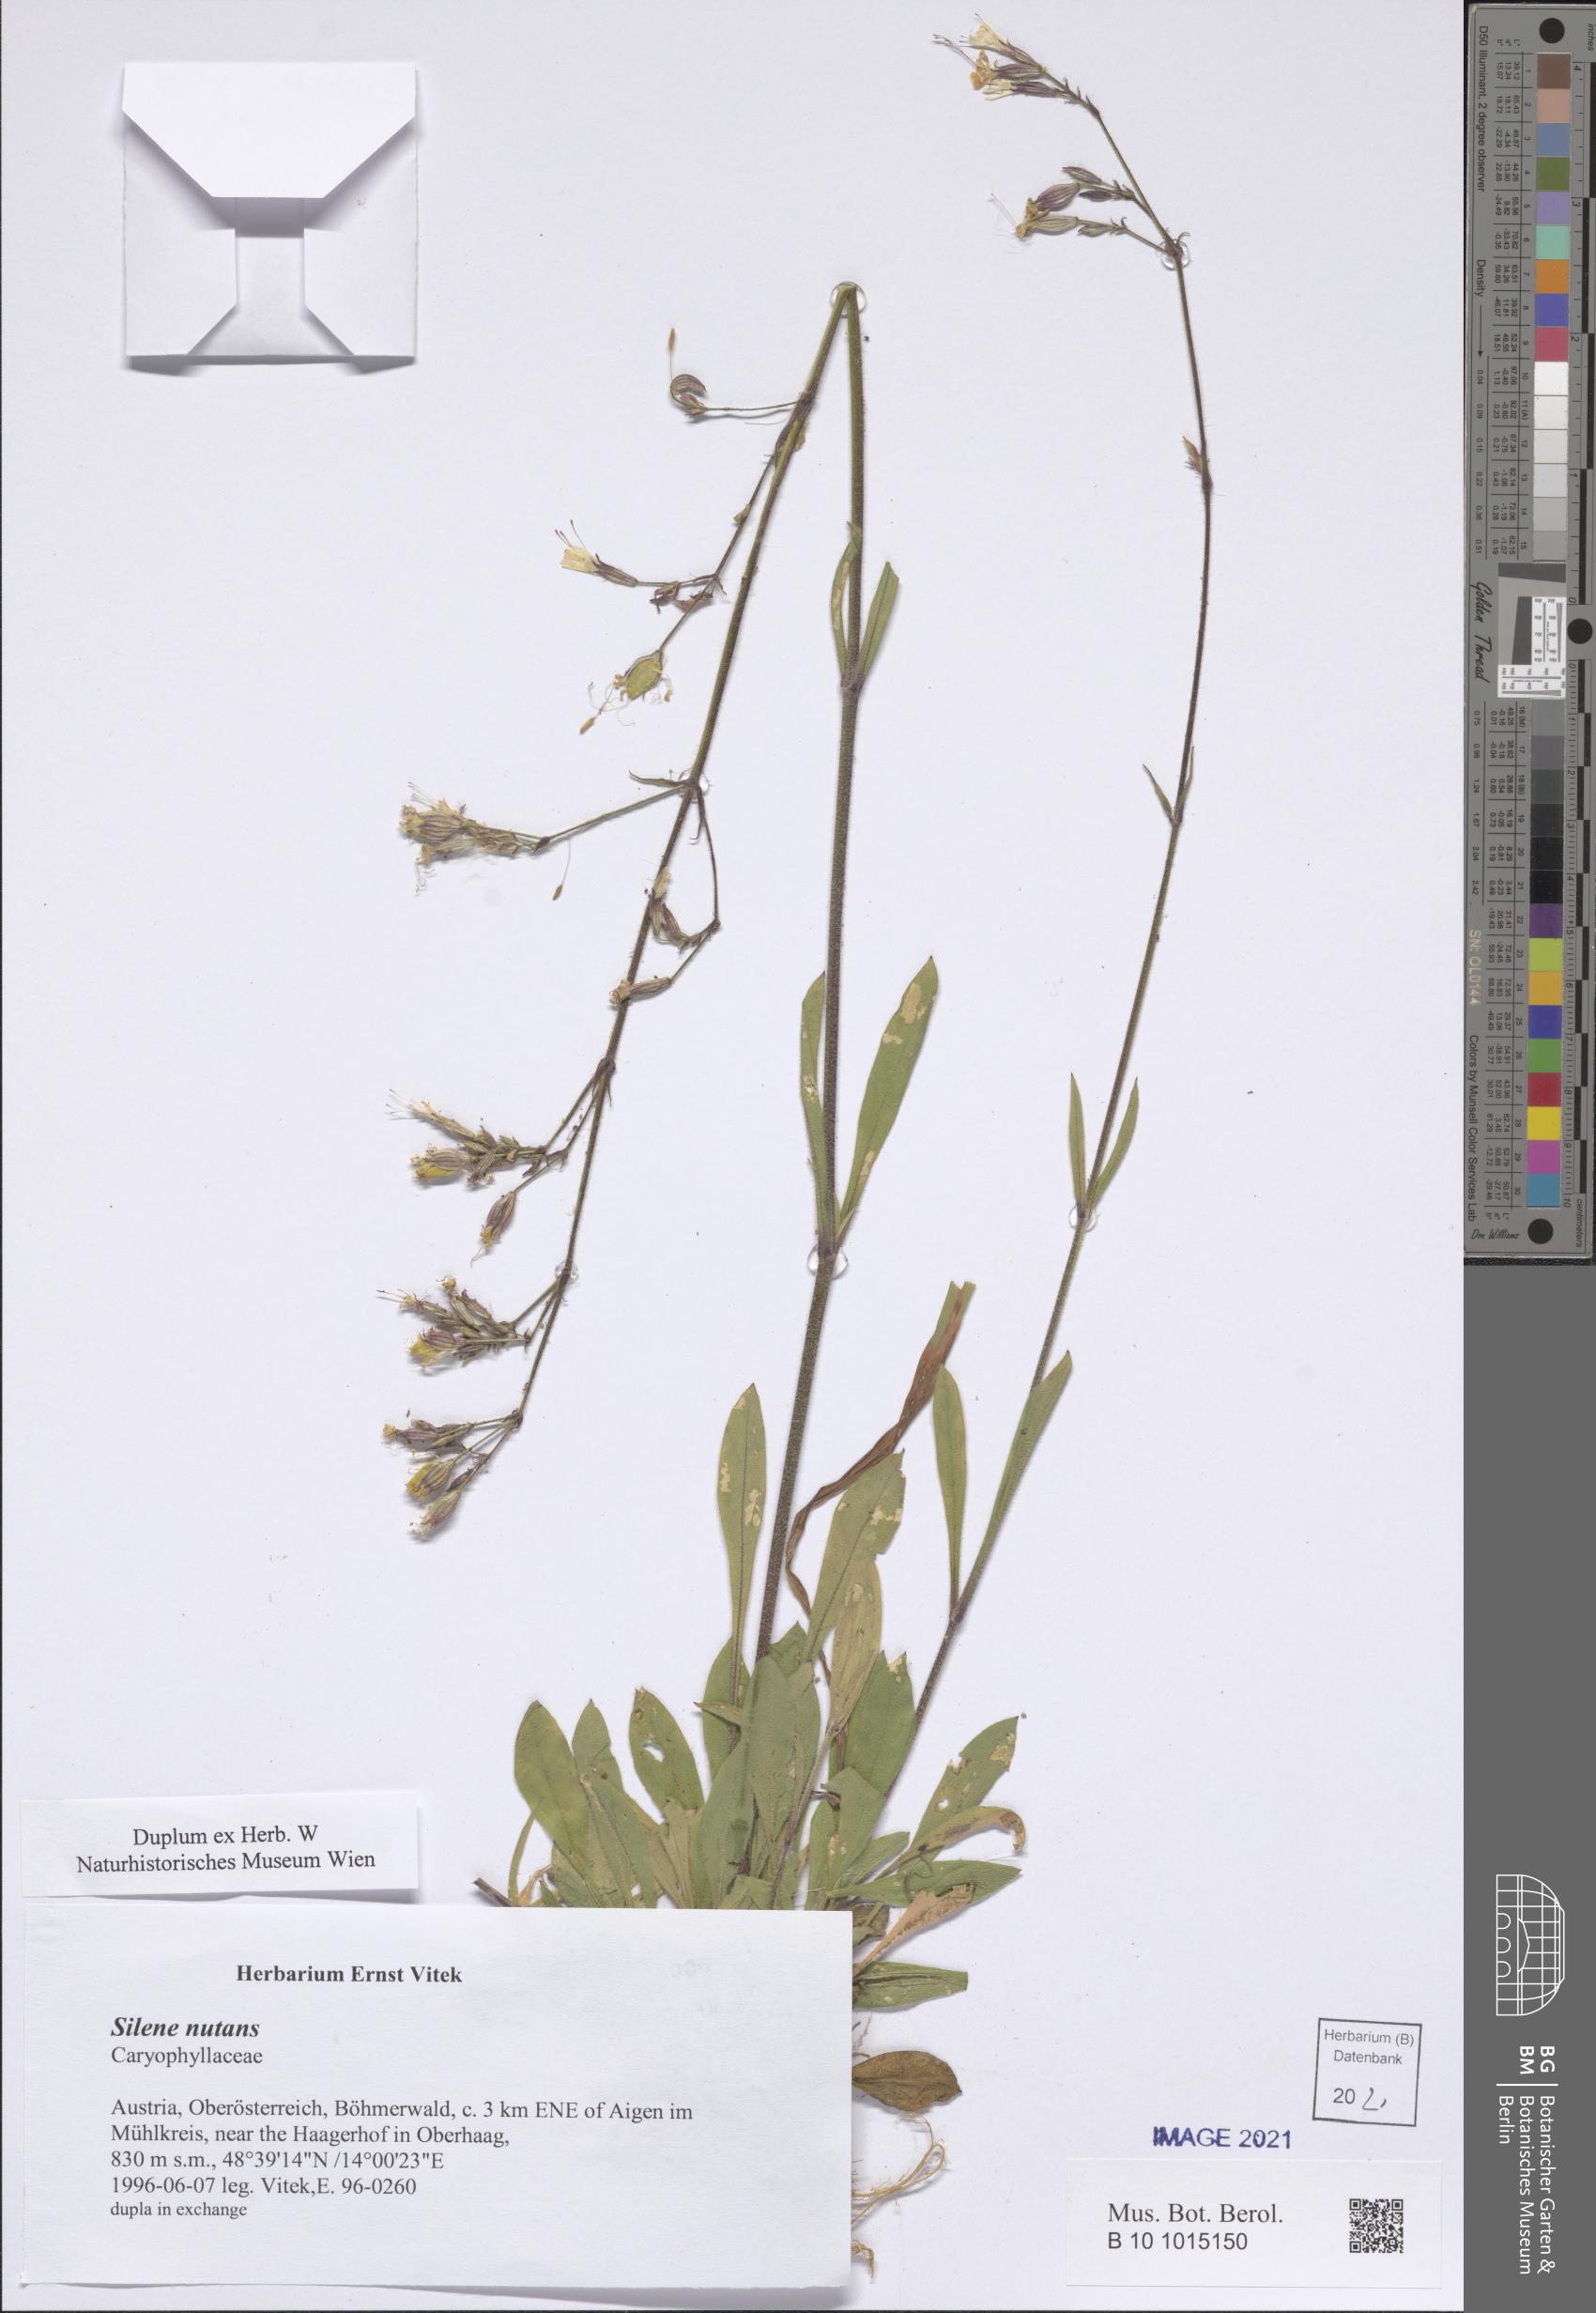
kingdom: Plantae
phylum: Tracheophyta
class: Magnoliopsida
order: Caryophyllales
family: Caryophyllaceae
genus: Silene
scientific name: Silene nutans
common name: Nottingham catchfly
